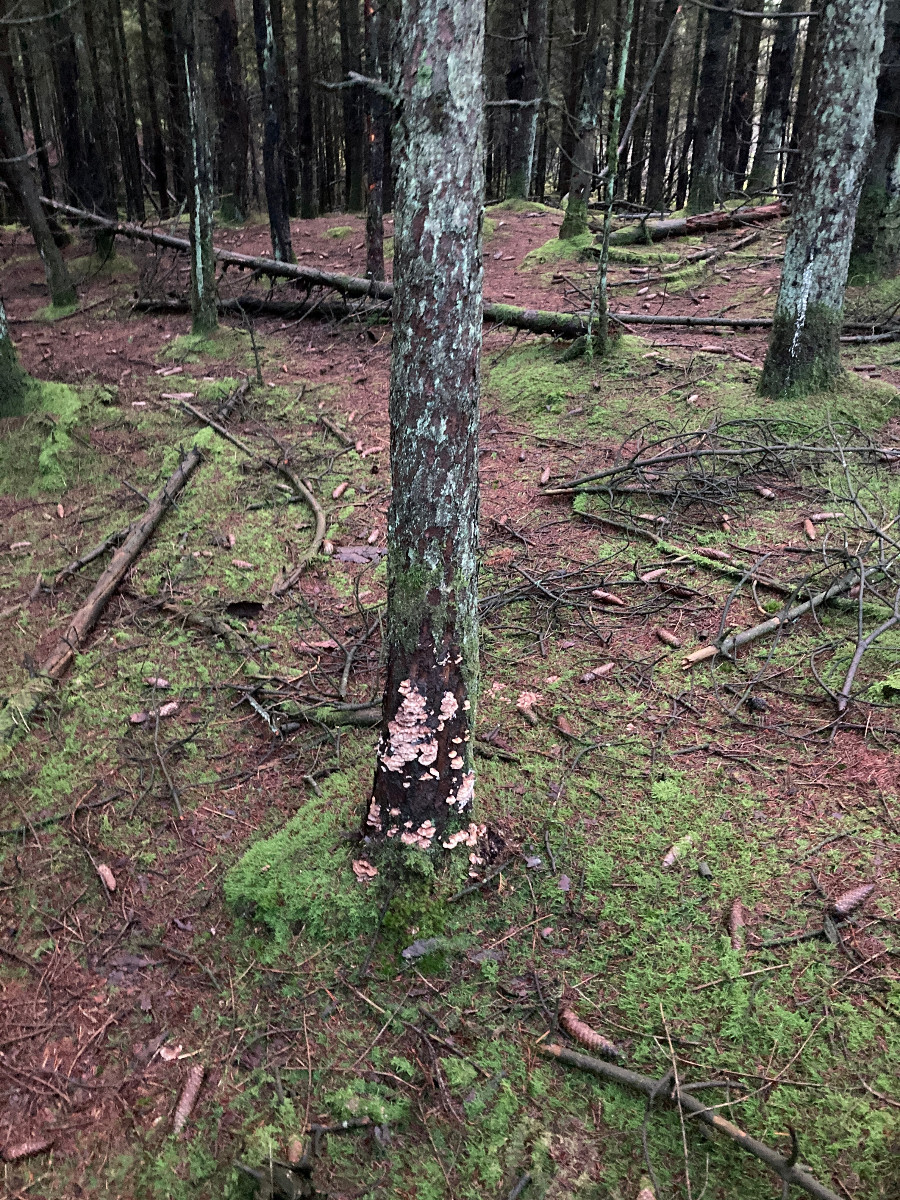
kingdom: Fungi
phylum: Basidiomycota
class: Agaricomycetes
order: Polyporales
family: Dacryobolaceae
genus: Oligoporus
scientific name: Oligoporus wakefieldiae
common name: række-kødporesvamp
